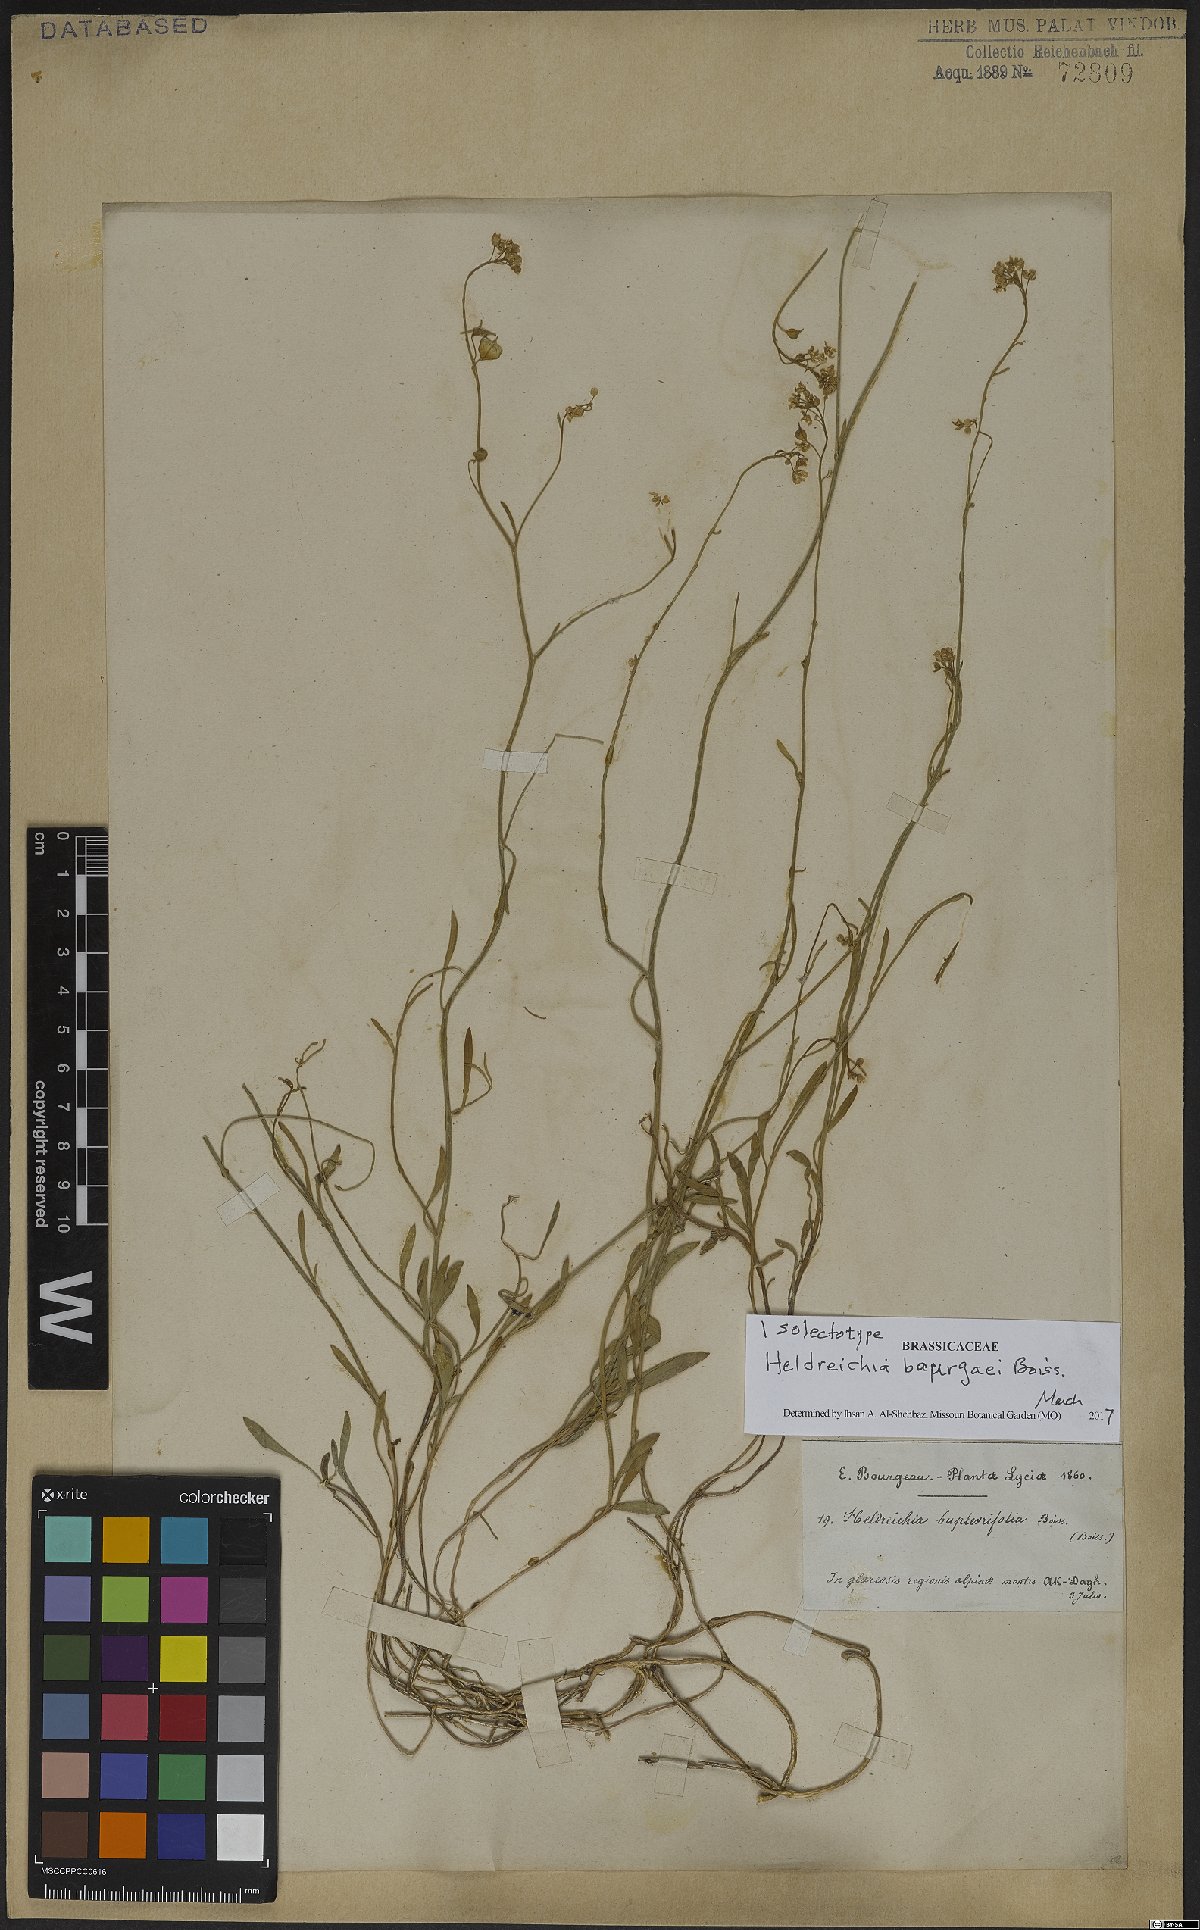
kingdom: Plantae
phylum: Tracheophyta
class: Magnoliopsida
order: Brassicales
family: Brassicaceae
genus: Heldreichia
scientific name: Heldreichia bupleurifolia
